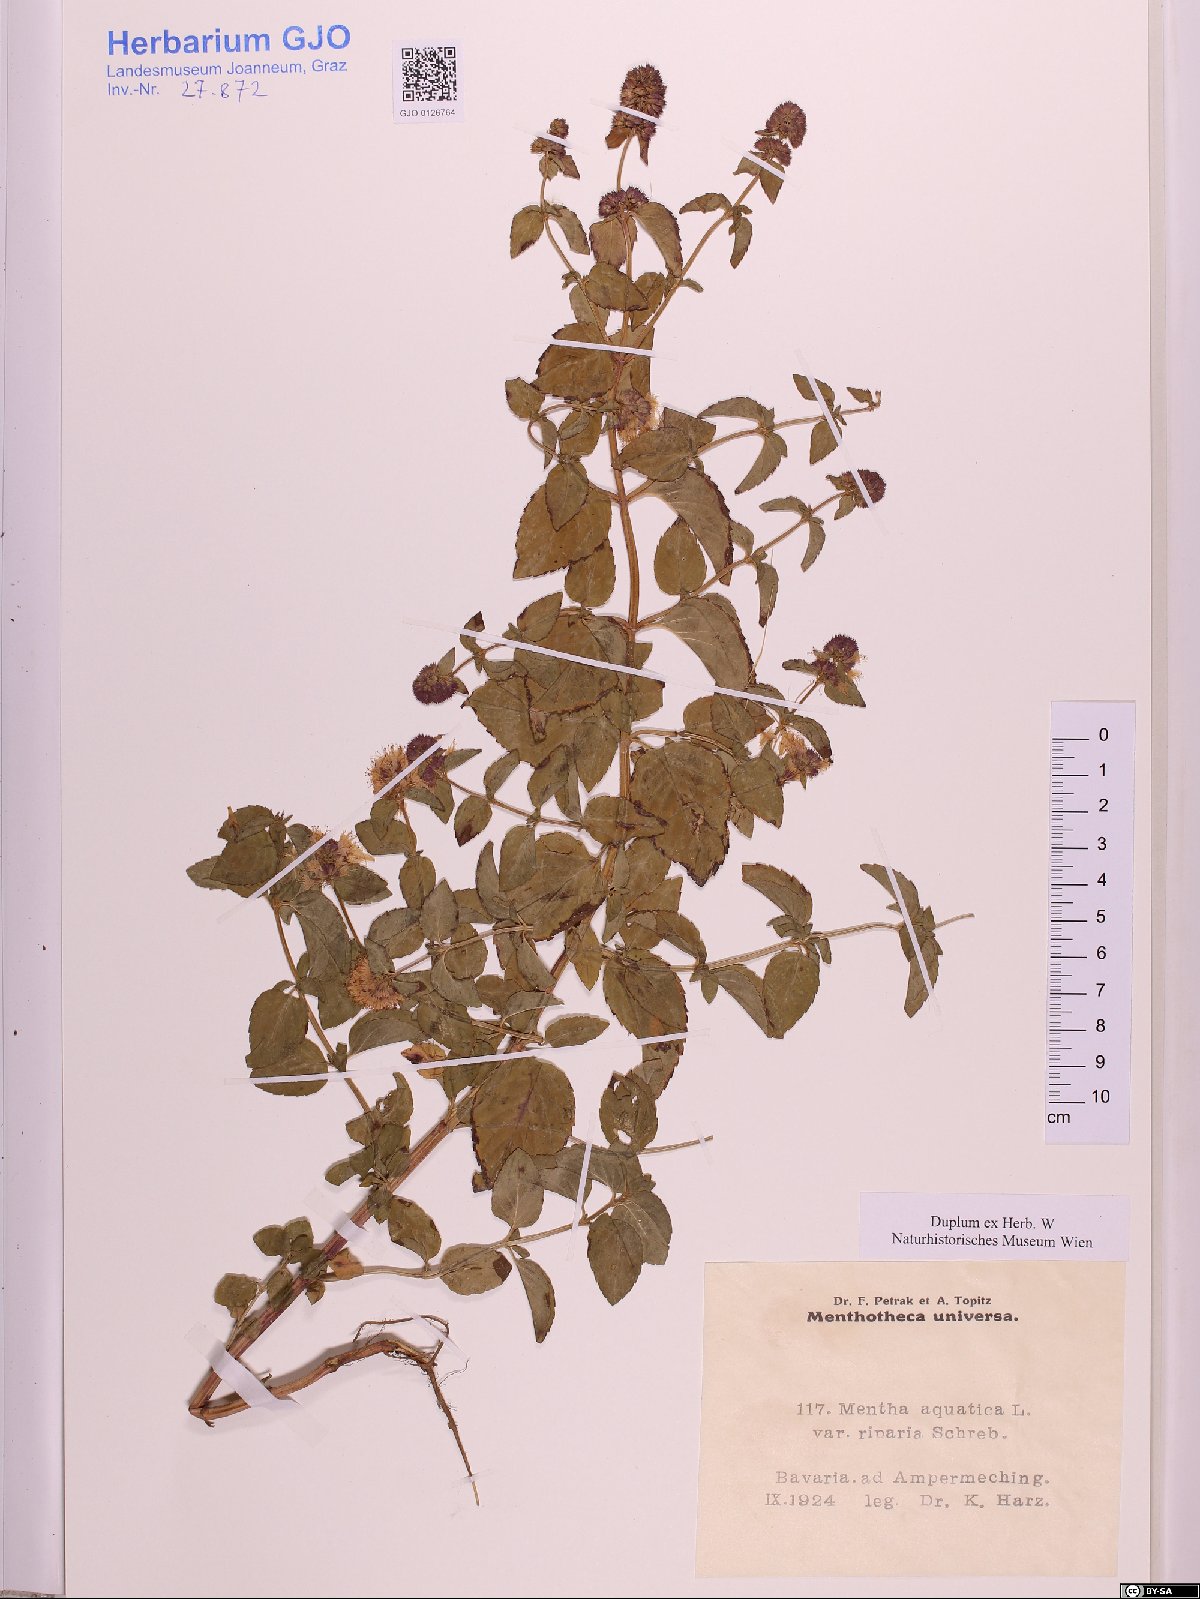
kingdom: Plantae
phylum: Tracheophyta
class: Magnoliopsida
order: Lamiales
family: Lamiaceae
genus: Mentha
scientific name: Mentha aquatica
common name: Water mint
